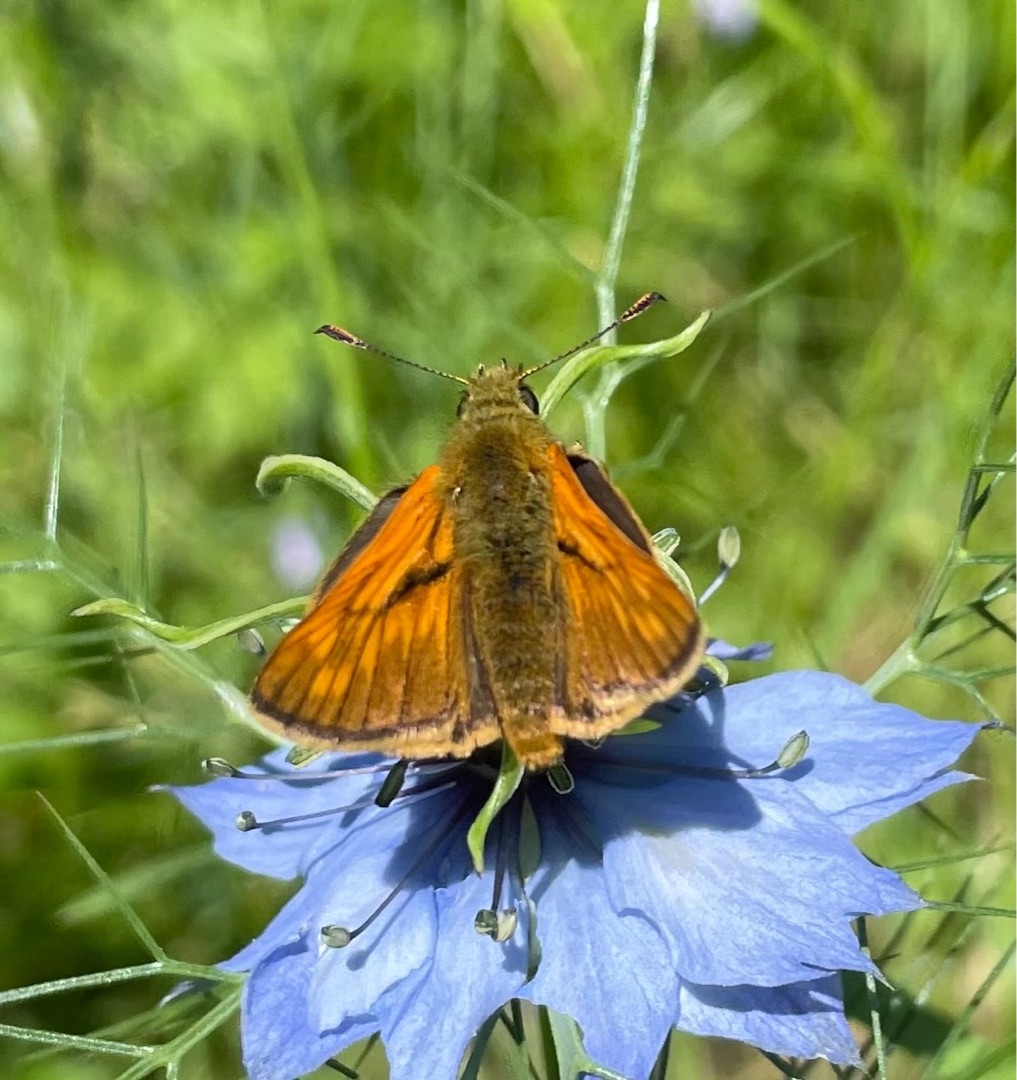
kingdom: Animalia
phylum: Arthropoda
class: Insecta
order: Lepidoptera
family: Hesperiidae
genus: Ochlodes
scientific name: Ochlodes venata
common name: Stor bredpande
